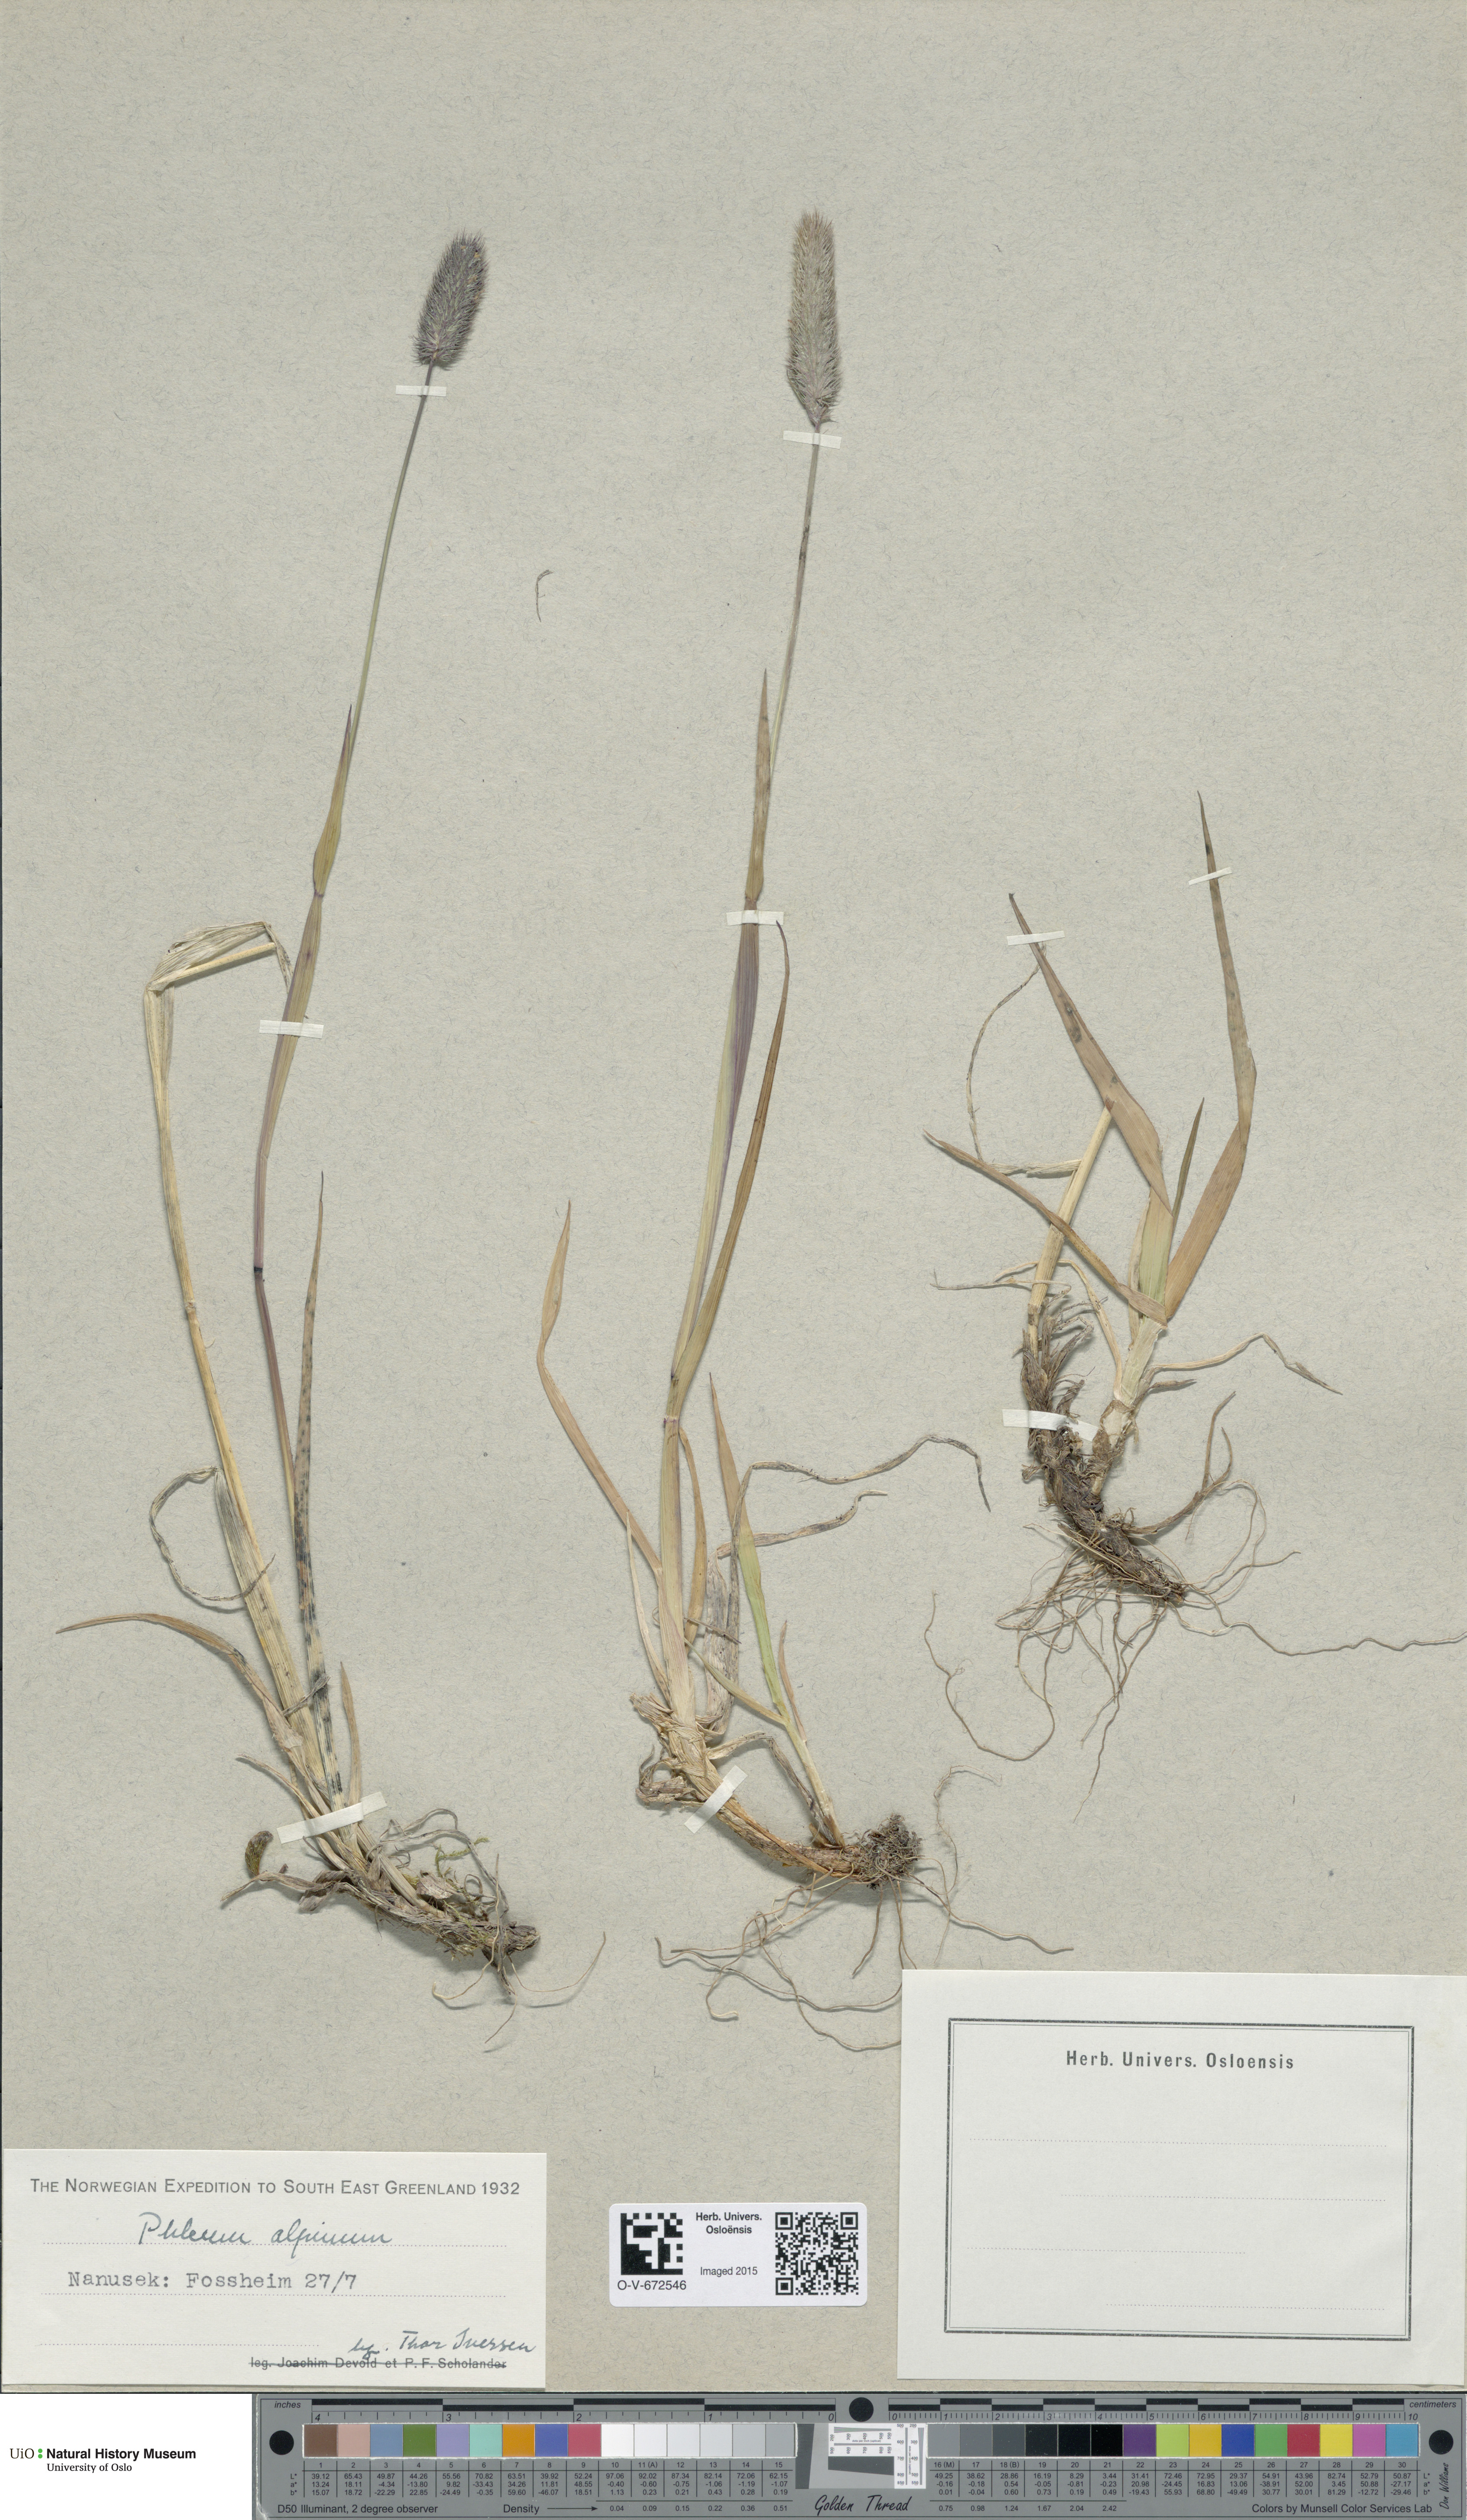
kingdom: Plantae
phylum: Tracheophyta
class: Liliopsida
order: Poales
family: Poaceae
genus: Phleum
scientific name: Phleum alpinum
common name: Alpine cat's-tail
